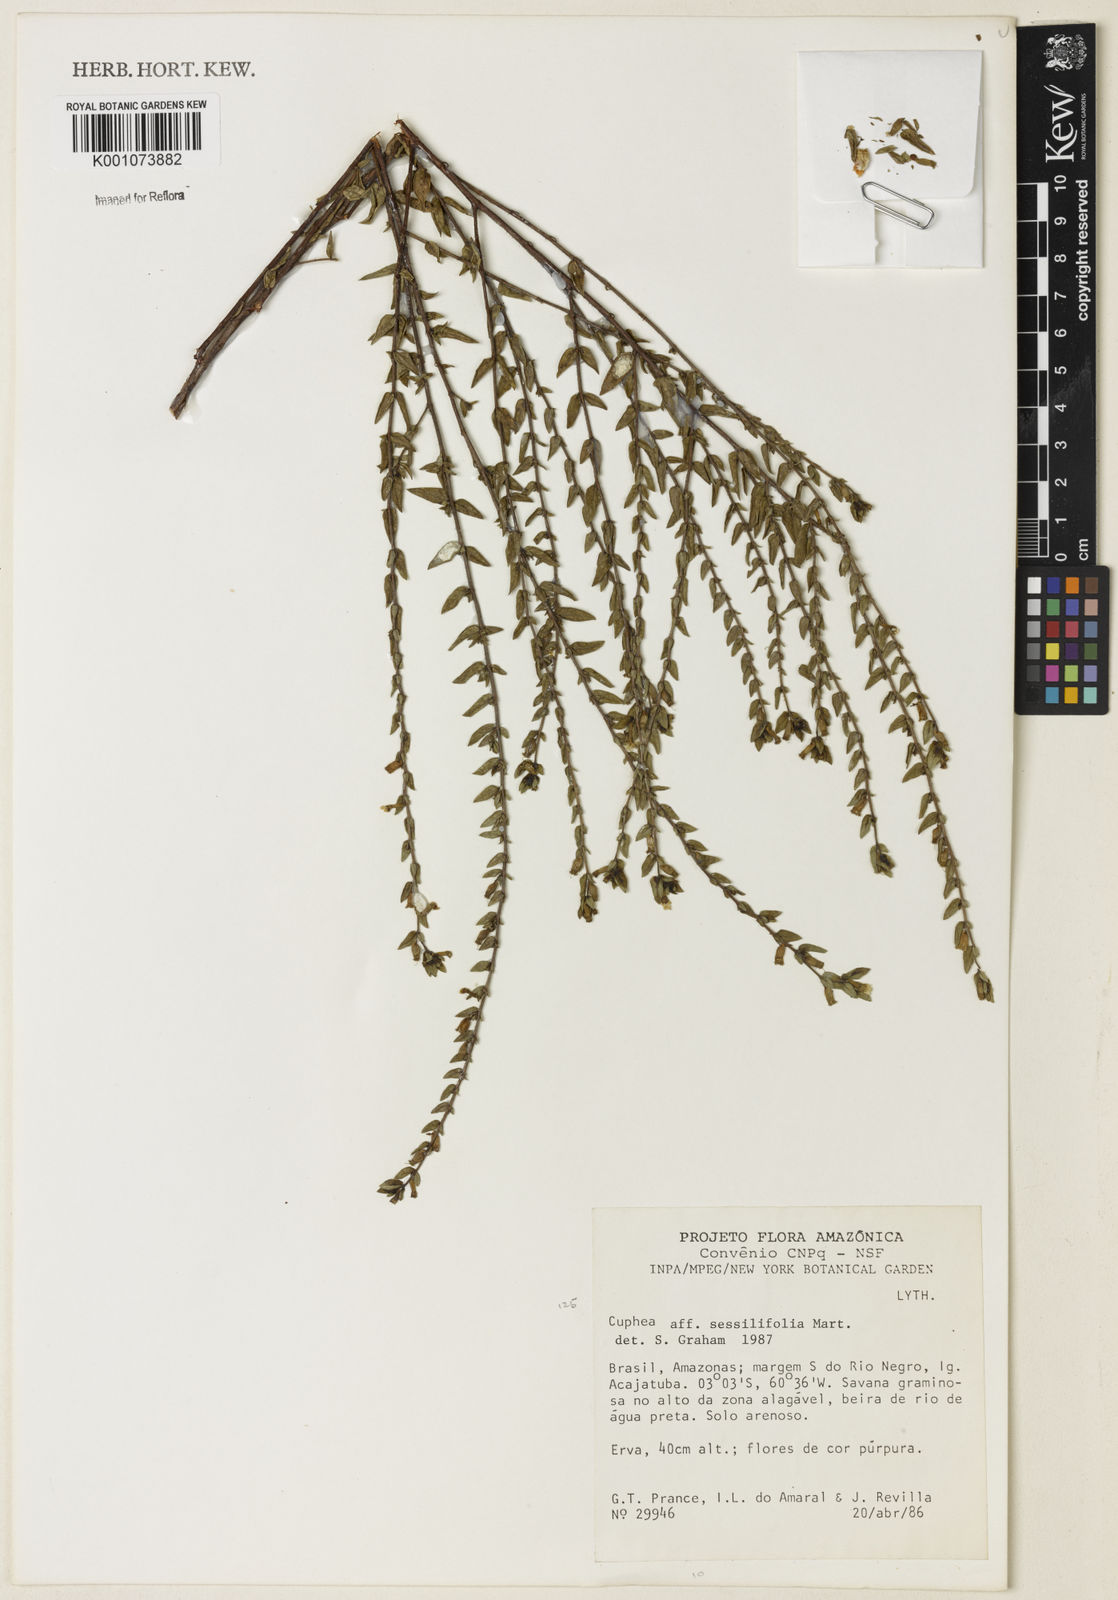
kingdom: Plantae
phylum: Tracheophyta
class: Magnoliopsida
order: Myrtales
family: Lythraceae
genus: Cuphea
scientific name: Cuphea
